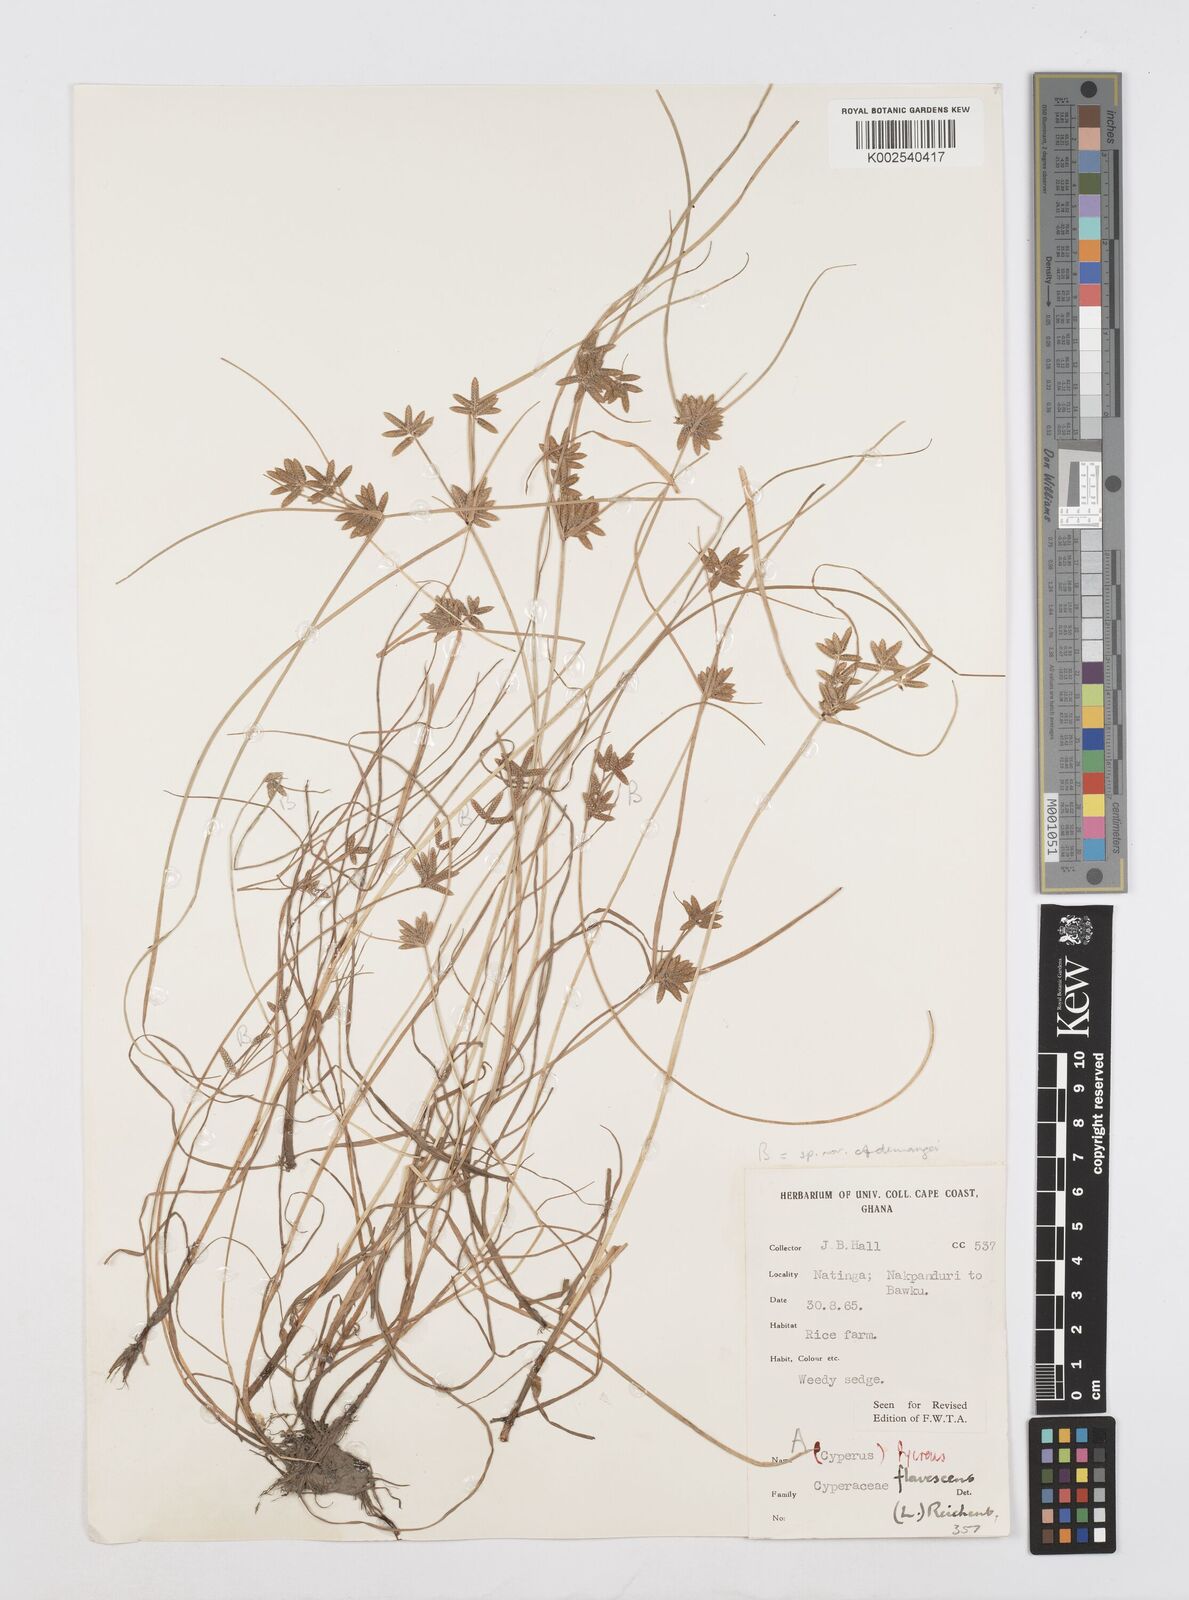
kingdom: Plantae
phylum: Tracheophyta
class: Liliopsida
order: Poales
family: Cyperaceae
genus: Cyperus
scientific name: Cyperus flavescens
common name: Yellow galingale
